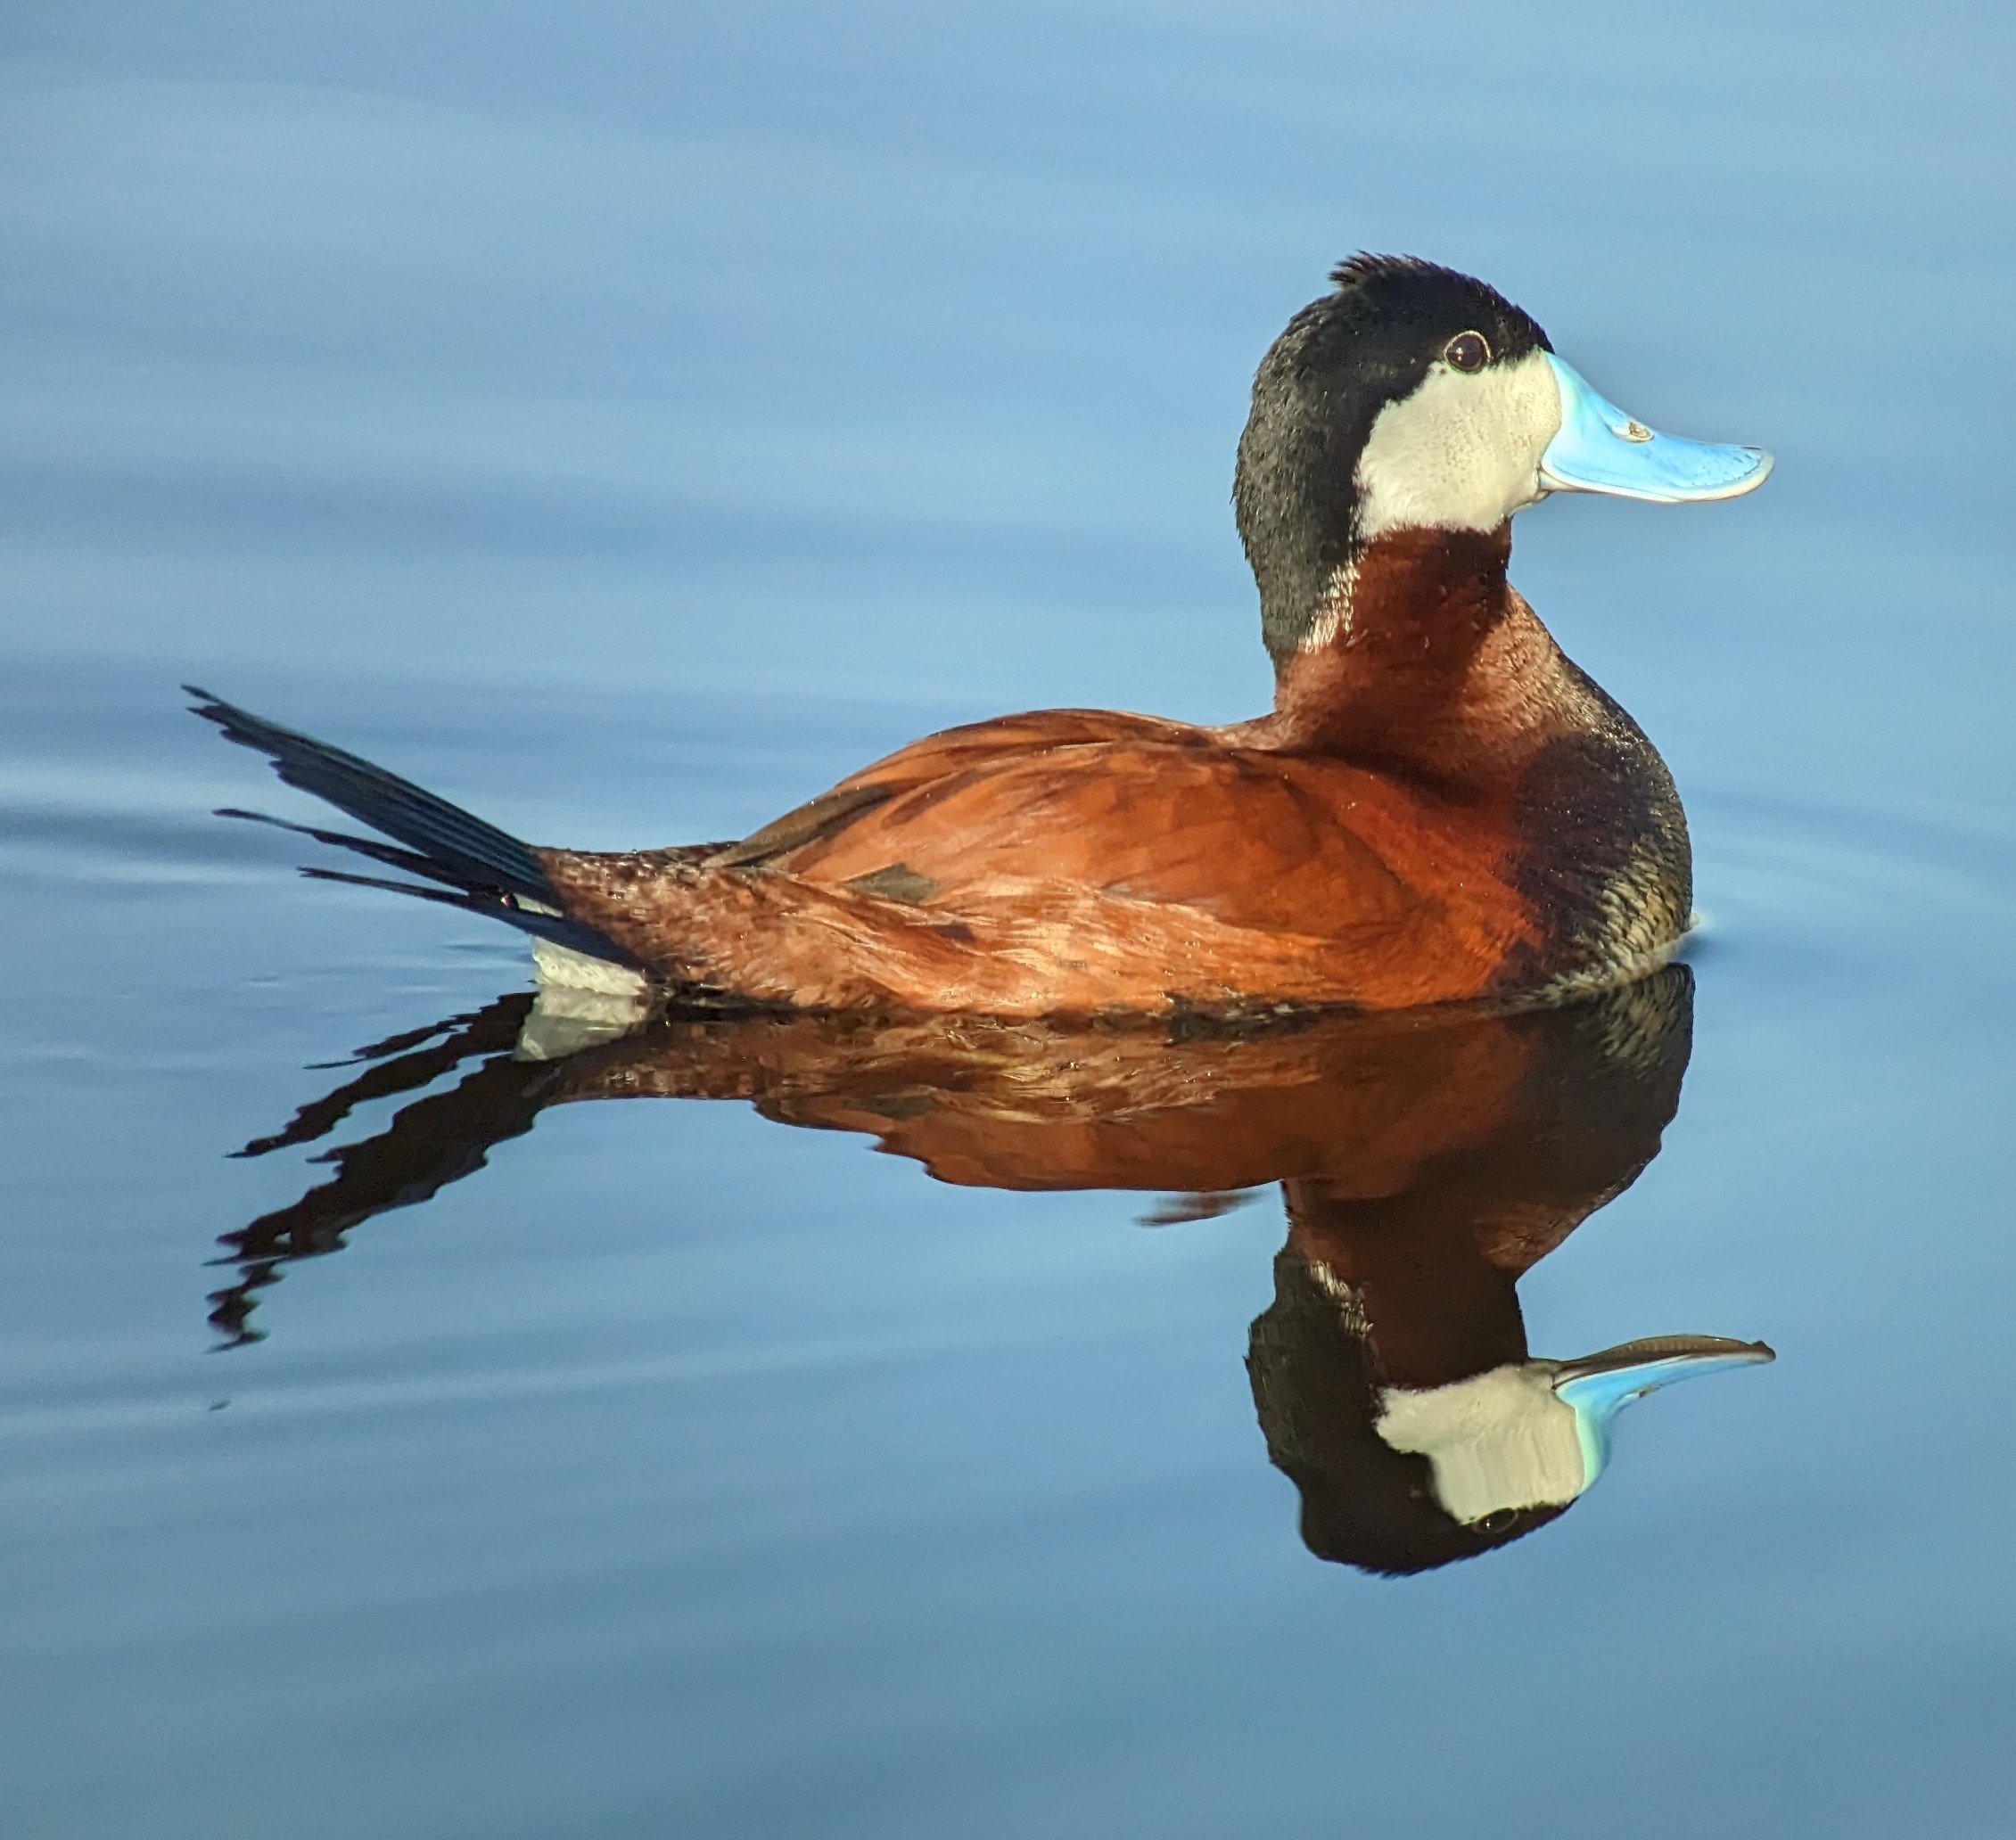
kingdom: Animalia
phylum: Chordata
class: Aves
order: Anseriformes
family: Anatidae
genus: Oxyura
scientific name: Oxyura jamaicensis
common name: Amerikansk skarveand
